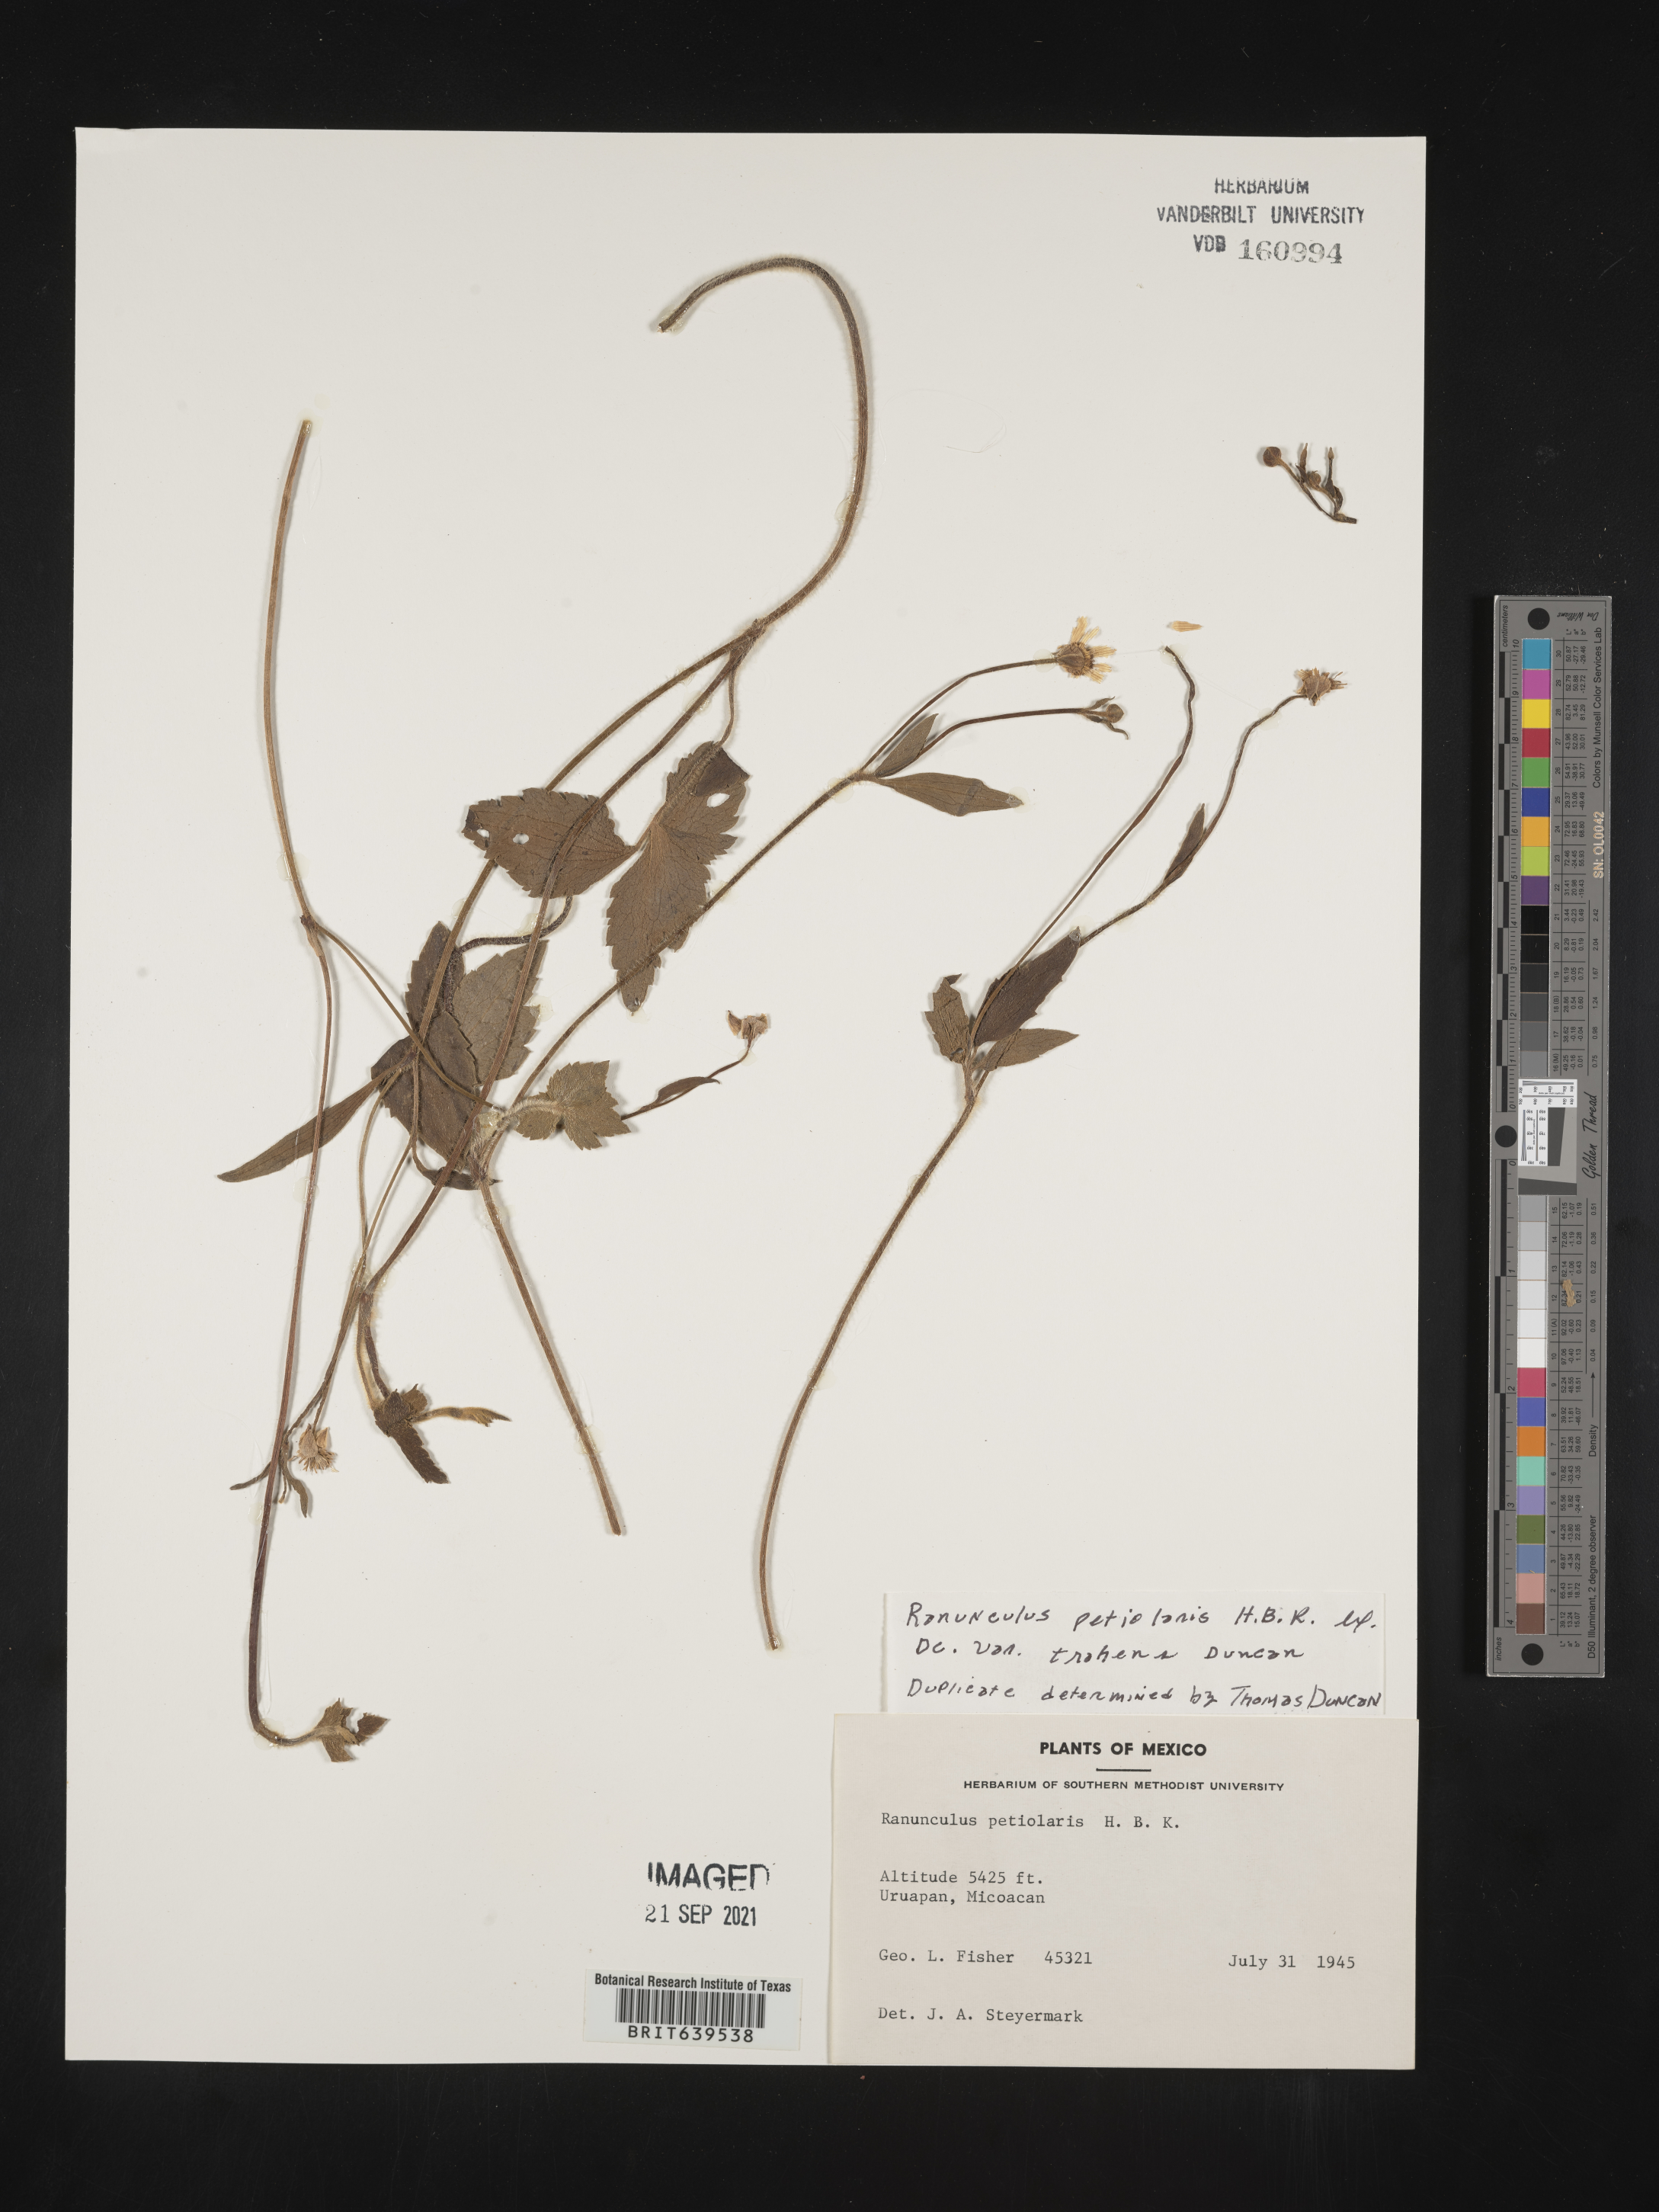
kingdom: Plantae
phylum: Tracheophyta
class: Magnoliopsida
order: Ranunculales
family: Ranunculaceae
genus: Ranunculus
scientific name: Ranunculus
